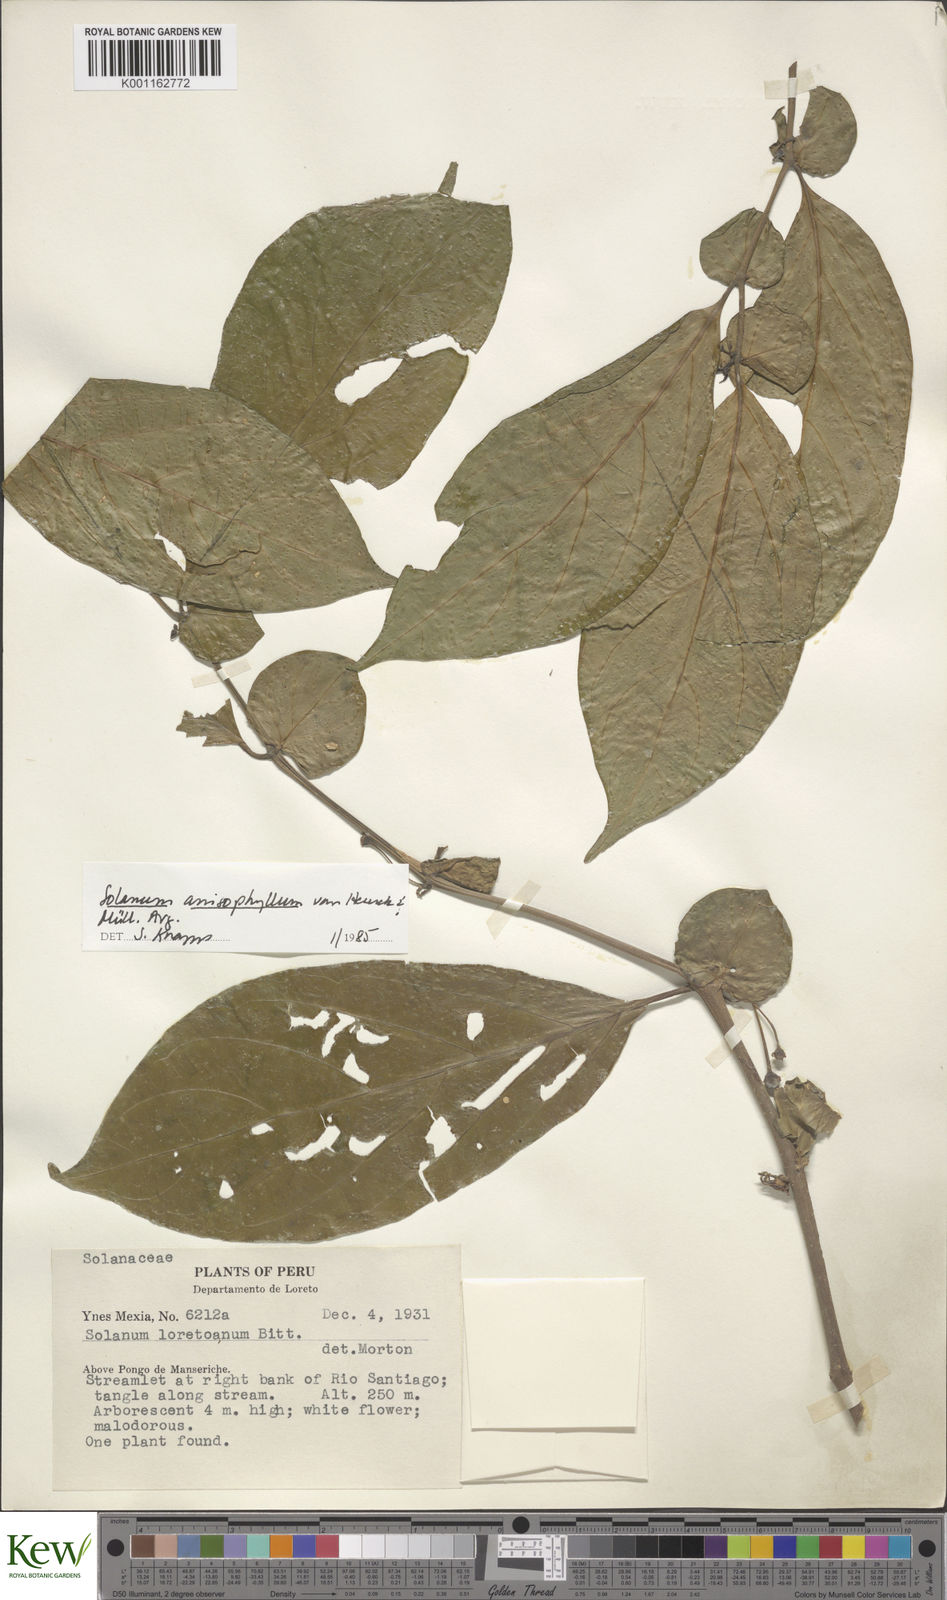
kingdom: Plantae
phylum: Tracheophyta
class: Magnoliopsida
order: Solanales
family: Solanaceae
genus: Solanum
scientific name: Solanum
